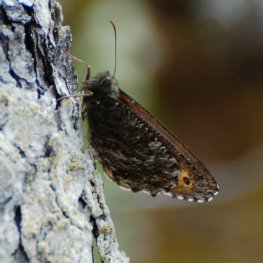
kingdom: Animalia
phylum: Arthropoda
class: Insecta
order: Lepidoptera
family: Nymphalidae
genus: Oeneis
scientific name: Oeneis jutta
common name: Jutta Arctic
